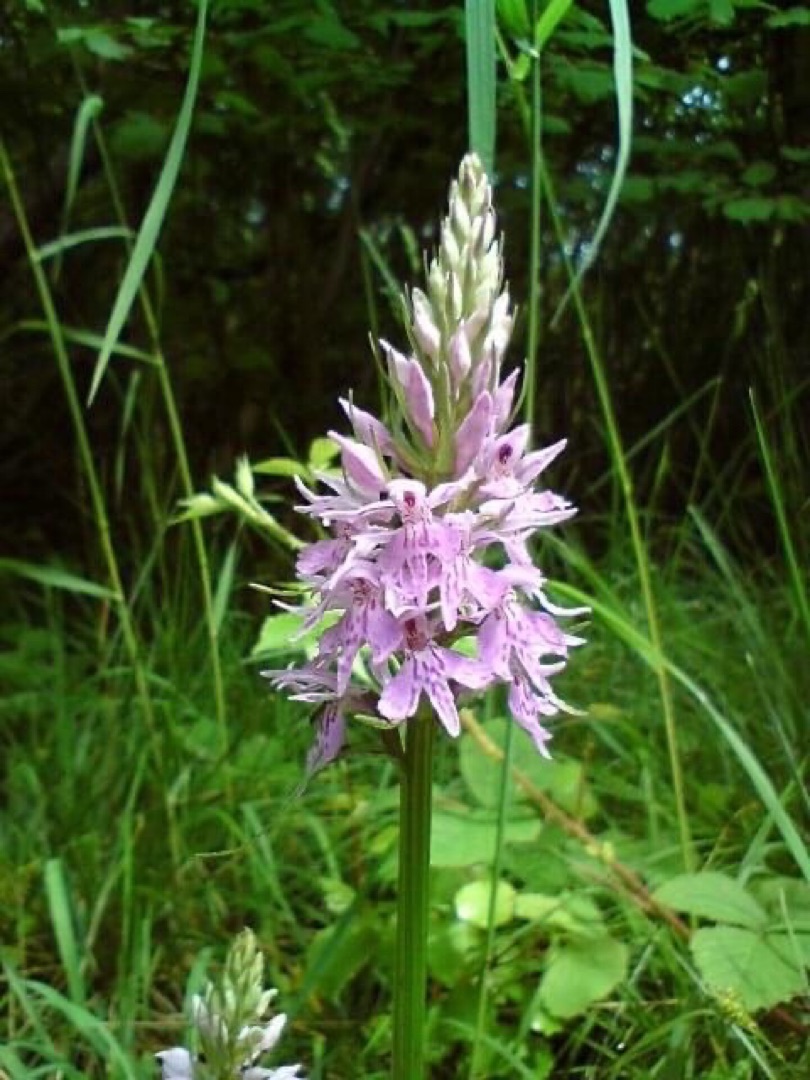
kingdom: Plantae
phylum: Tracheophyta
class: Liliopsida
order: Asparagales
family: Orchidaceae
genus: Dactylorhiza
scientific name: Dactylorhiza maculata
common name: Skov-gøgeurt
